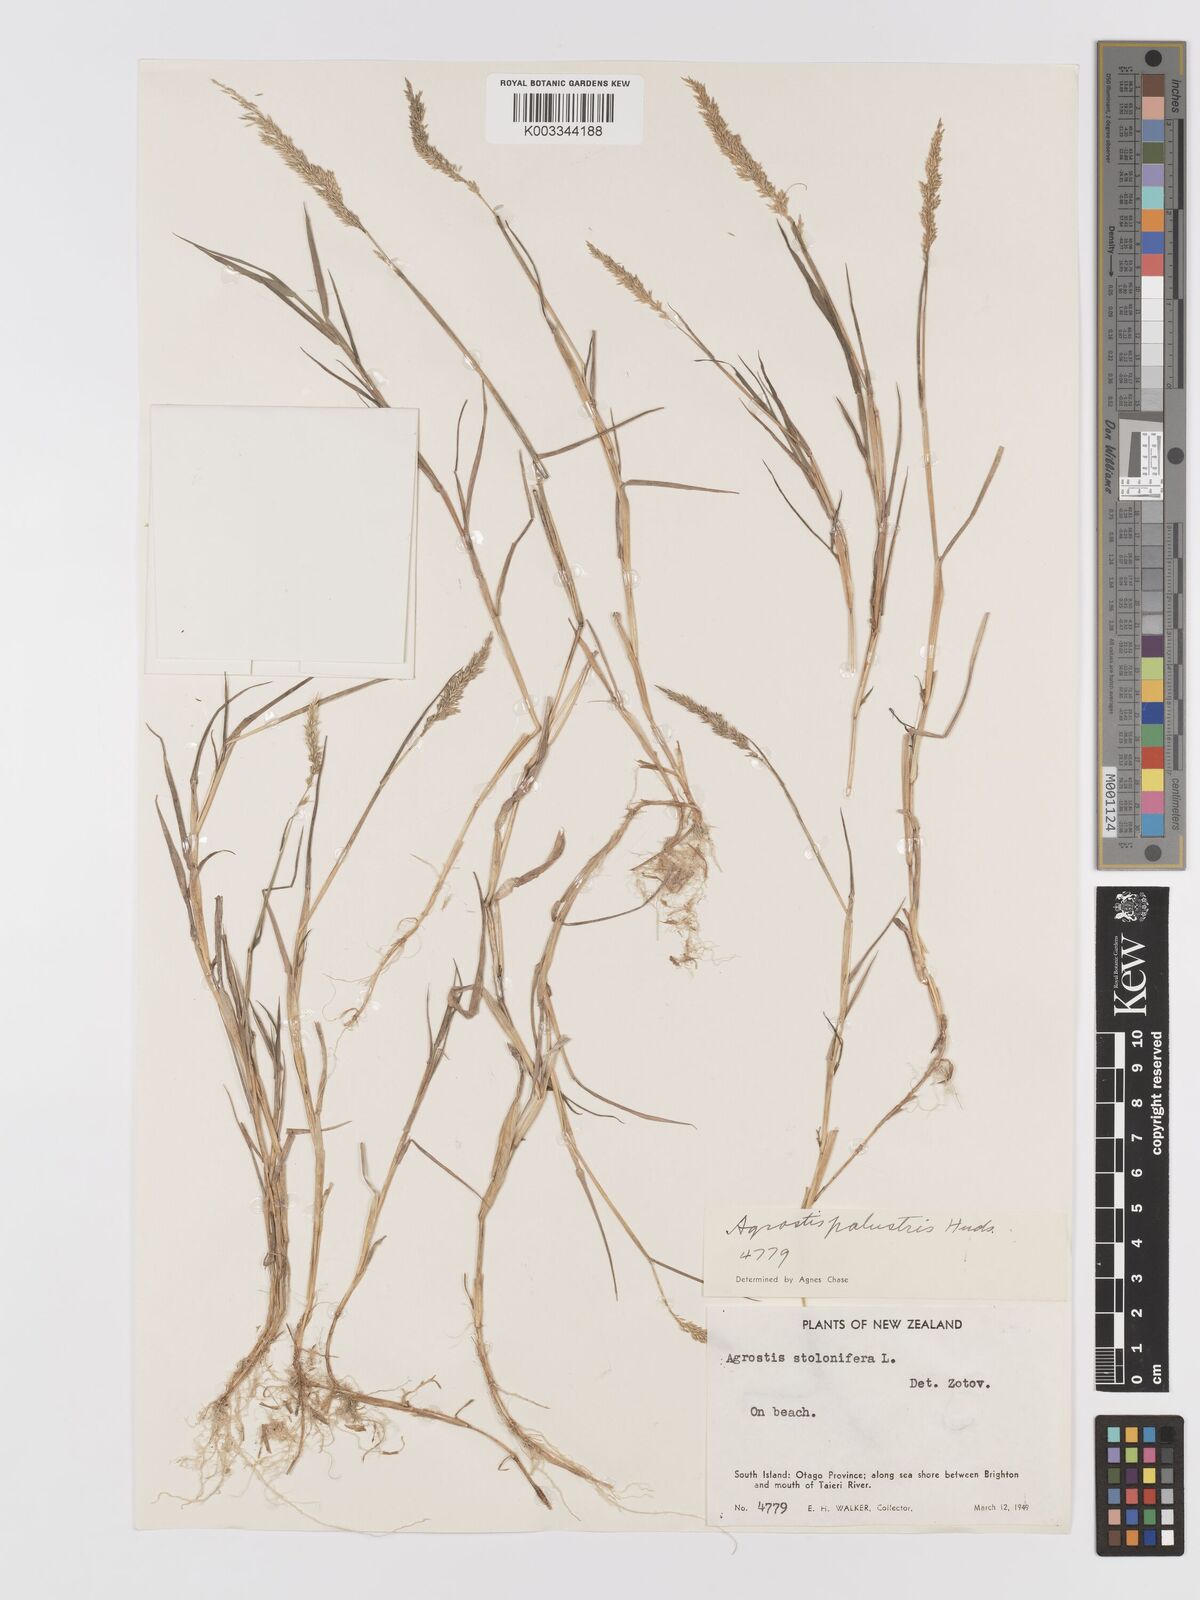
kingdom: Plantae
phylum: Tracheophyta
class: Liliopsida
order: Poales
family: Poaceae
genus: Agrostis
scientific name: Agrostis stolonifera
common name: Creeping bentgrass
